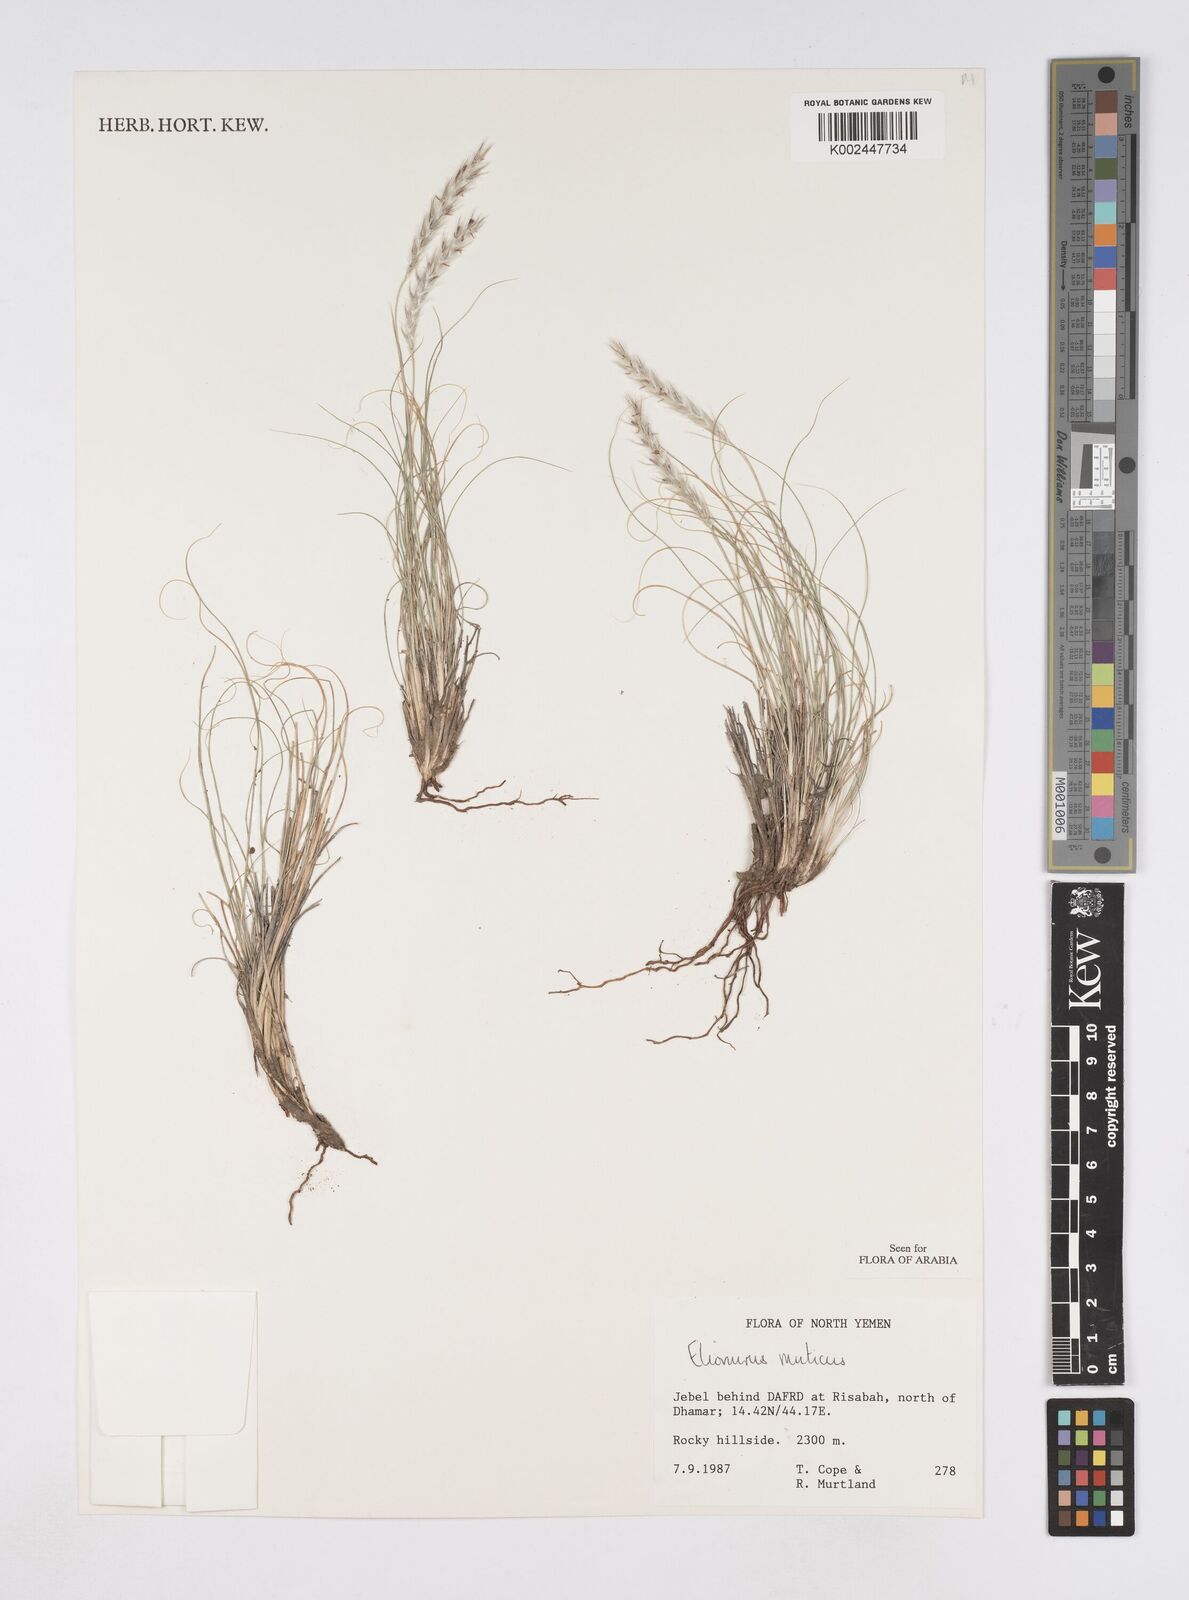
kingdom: Plantae
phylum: Tracheophyta
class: Liliopsida
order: Poales
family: Poaceae
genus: Elionurus
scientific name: Elionurus muticus
